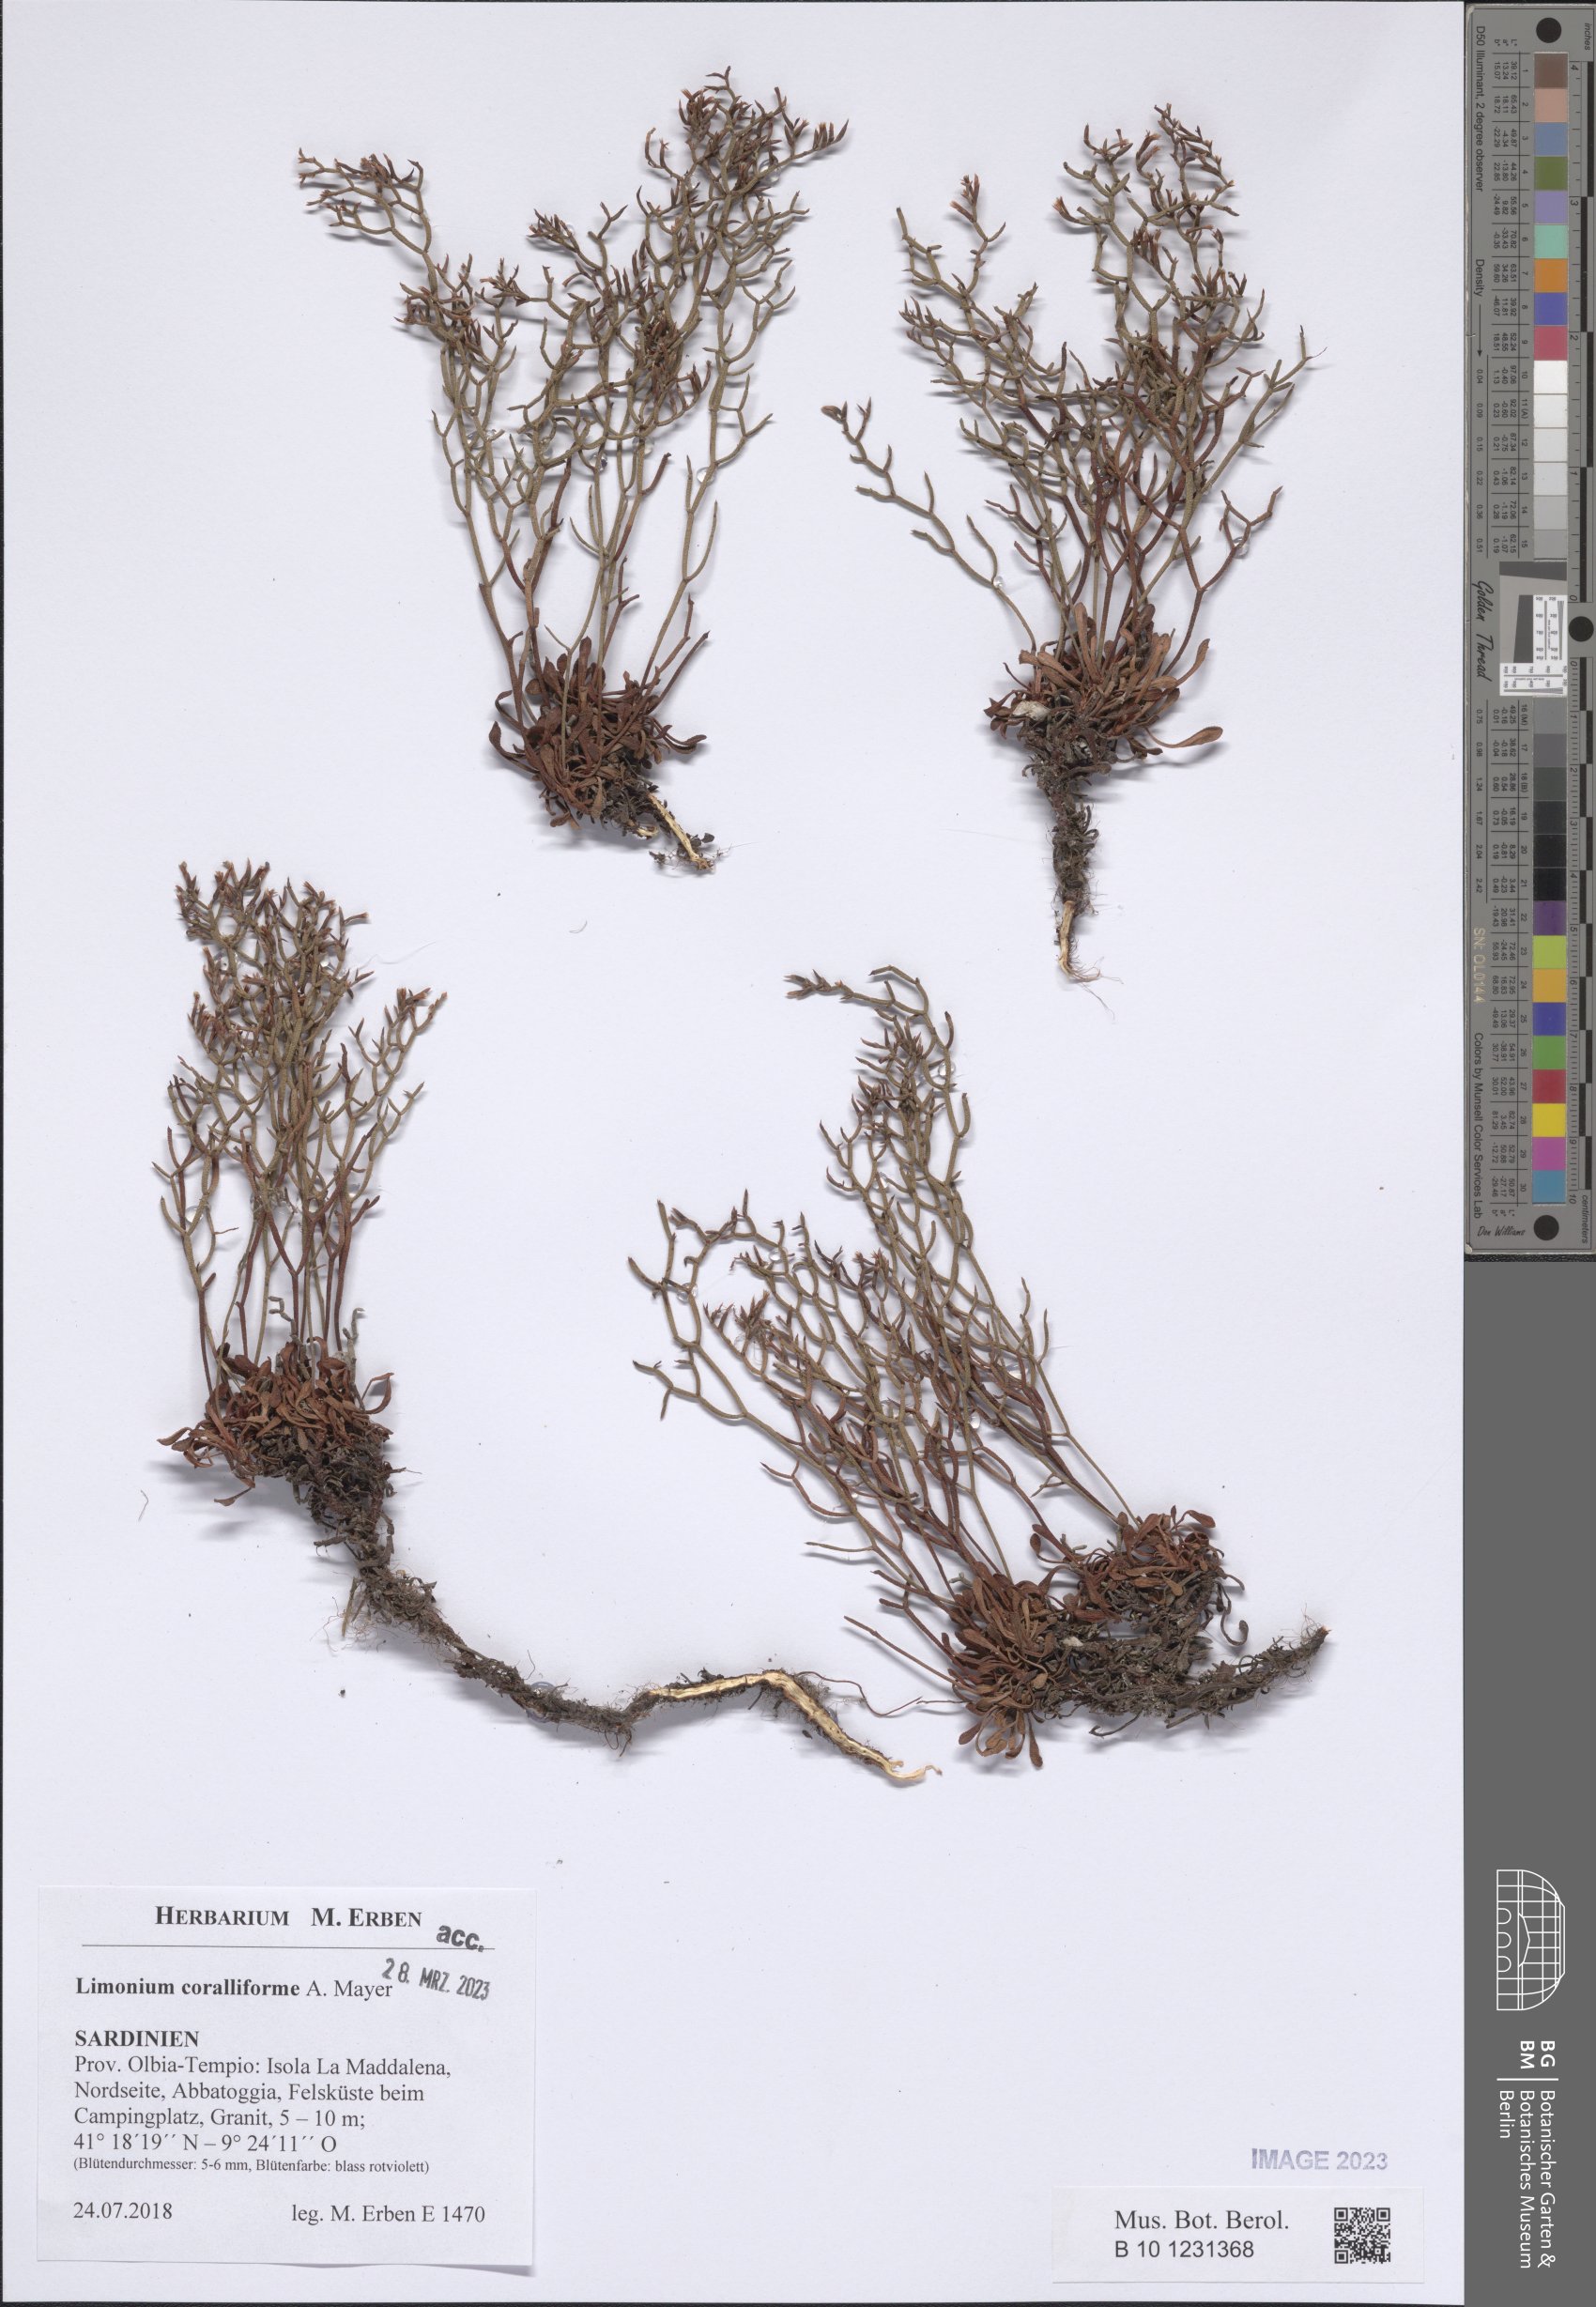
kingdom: Plantae
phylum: Tracheophyta
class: Magnoliopsida
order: Caryophyllales
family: Plumbaginaceae
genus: Limonium
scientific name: Limonium coralliforme
